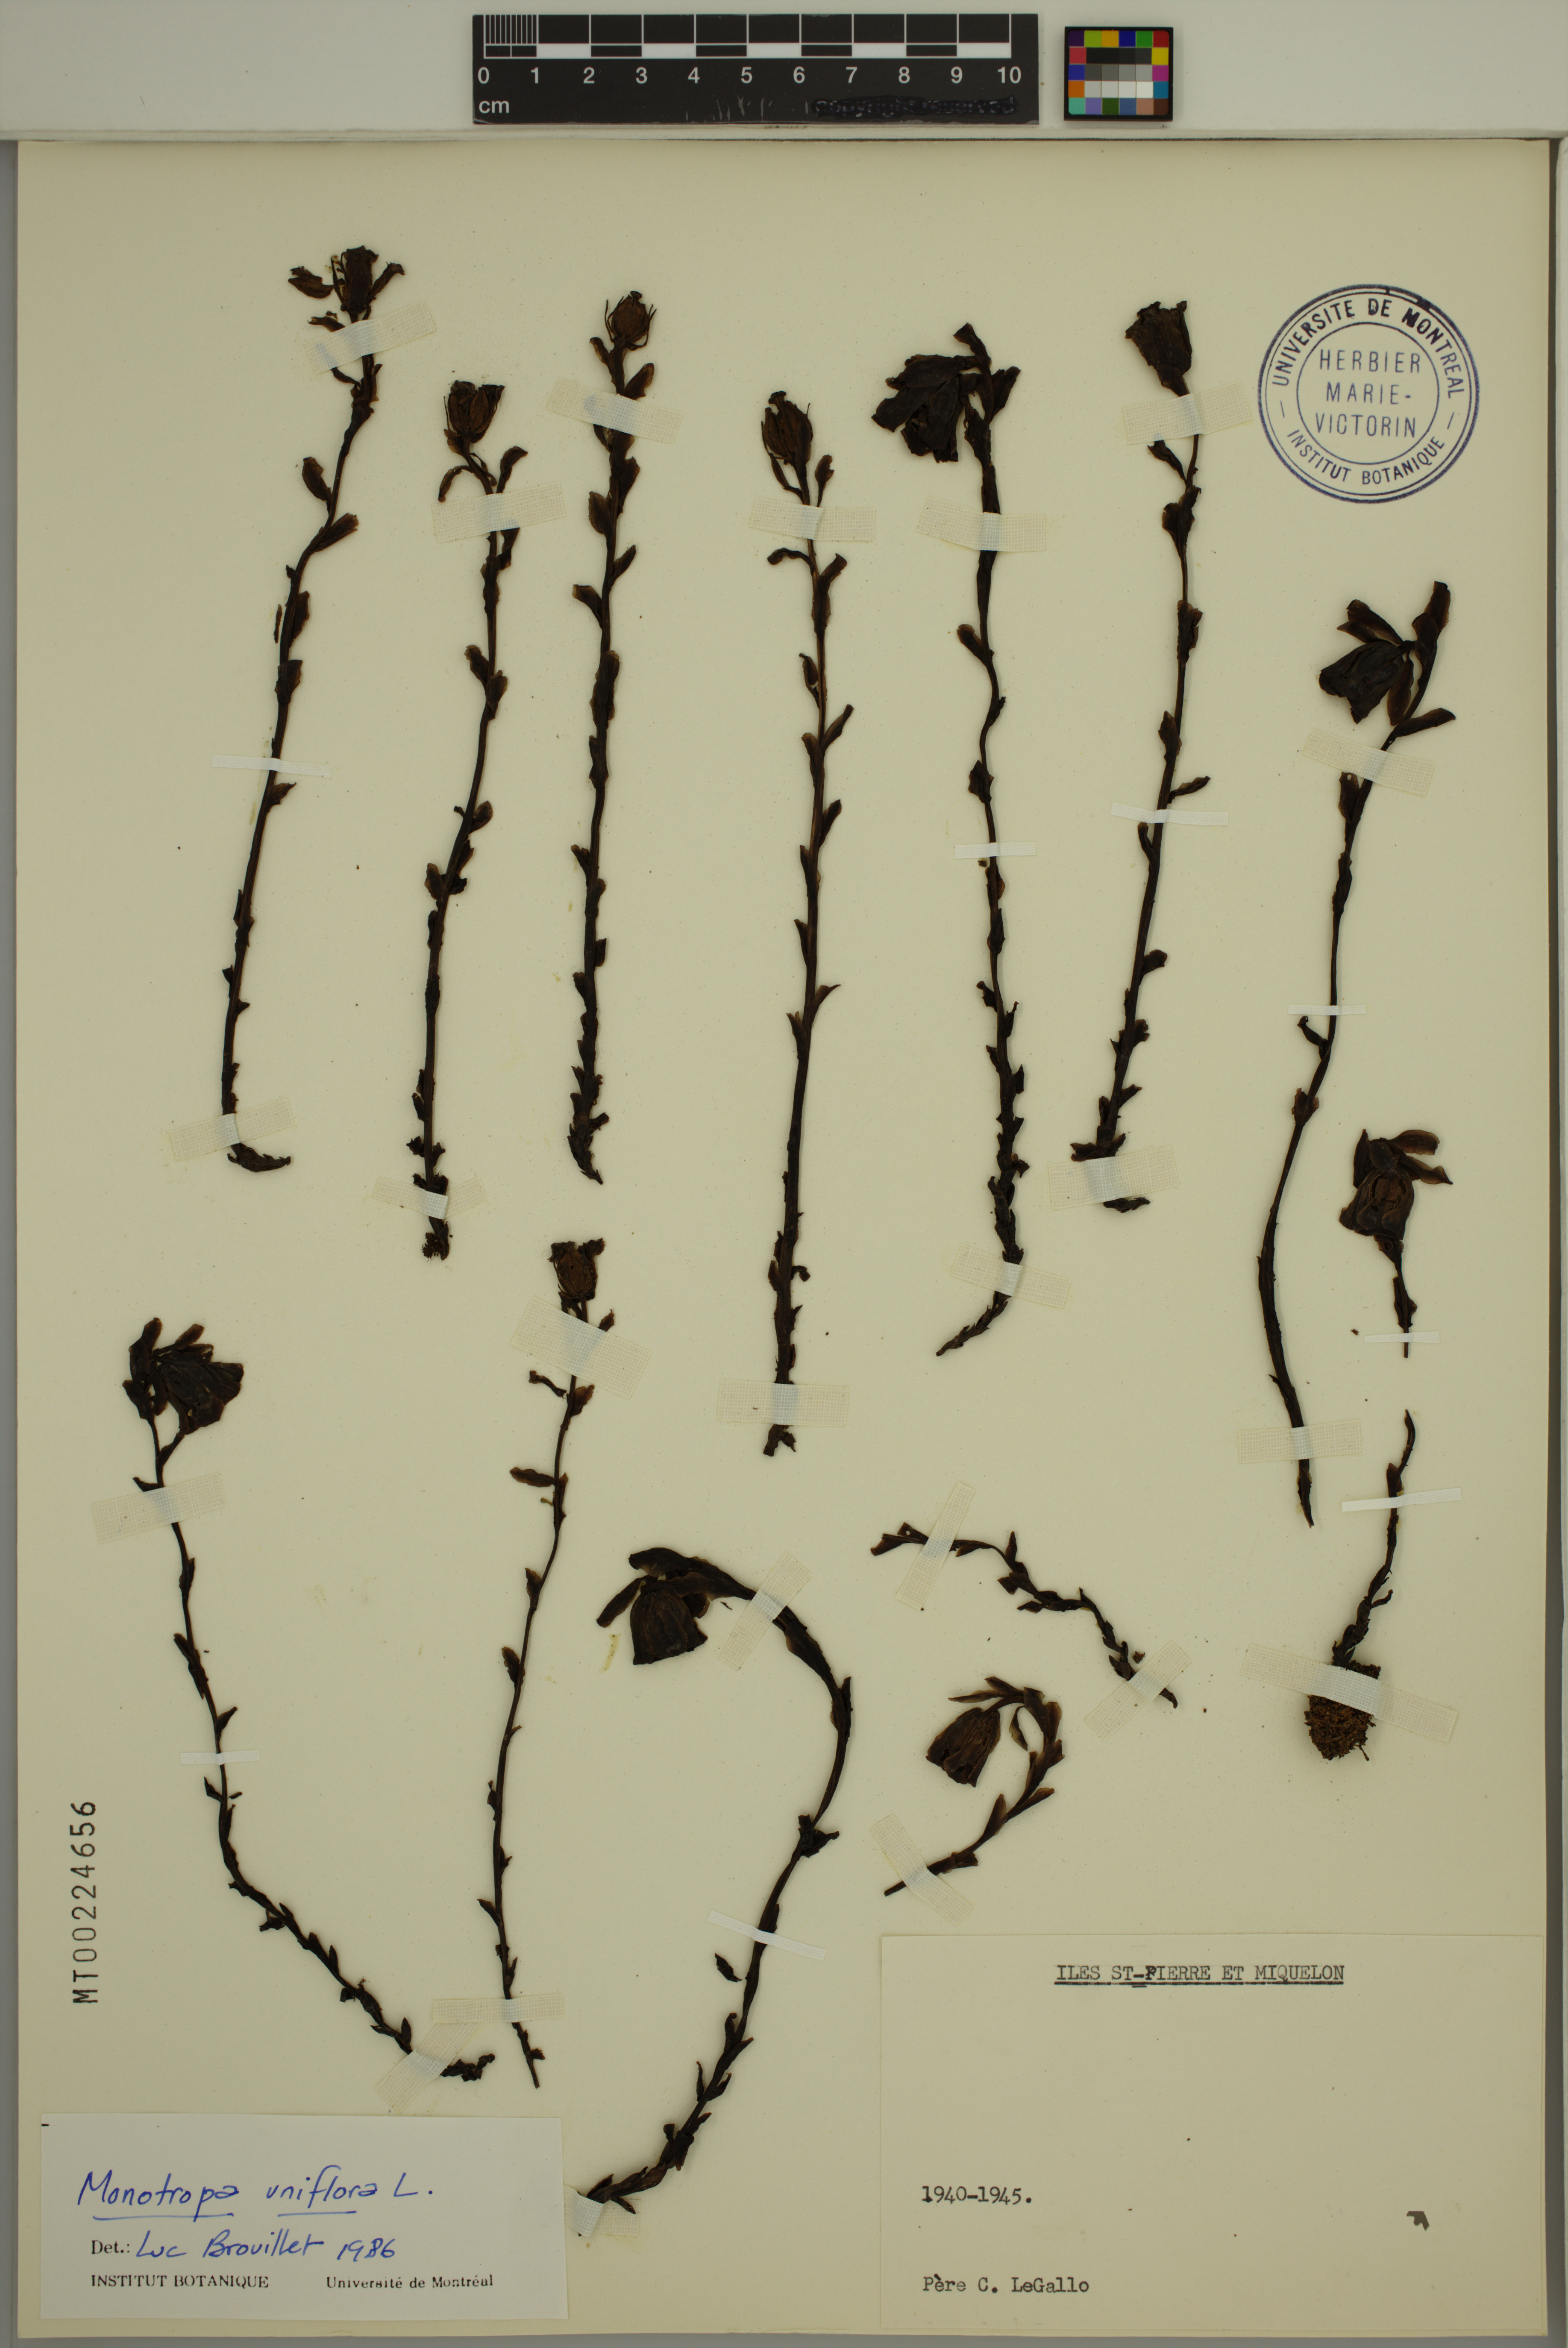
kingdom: Plantae
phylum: Tracheophyta
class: Magnoliopsida
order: Ericales
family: Ericaceae
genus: Monotropa
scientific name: Monotropa uniflora
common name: Convulsion root
